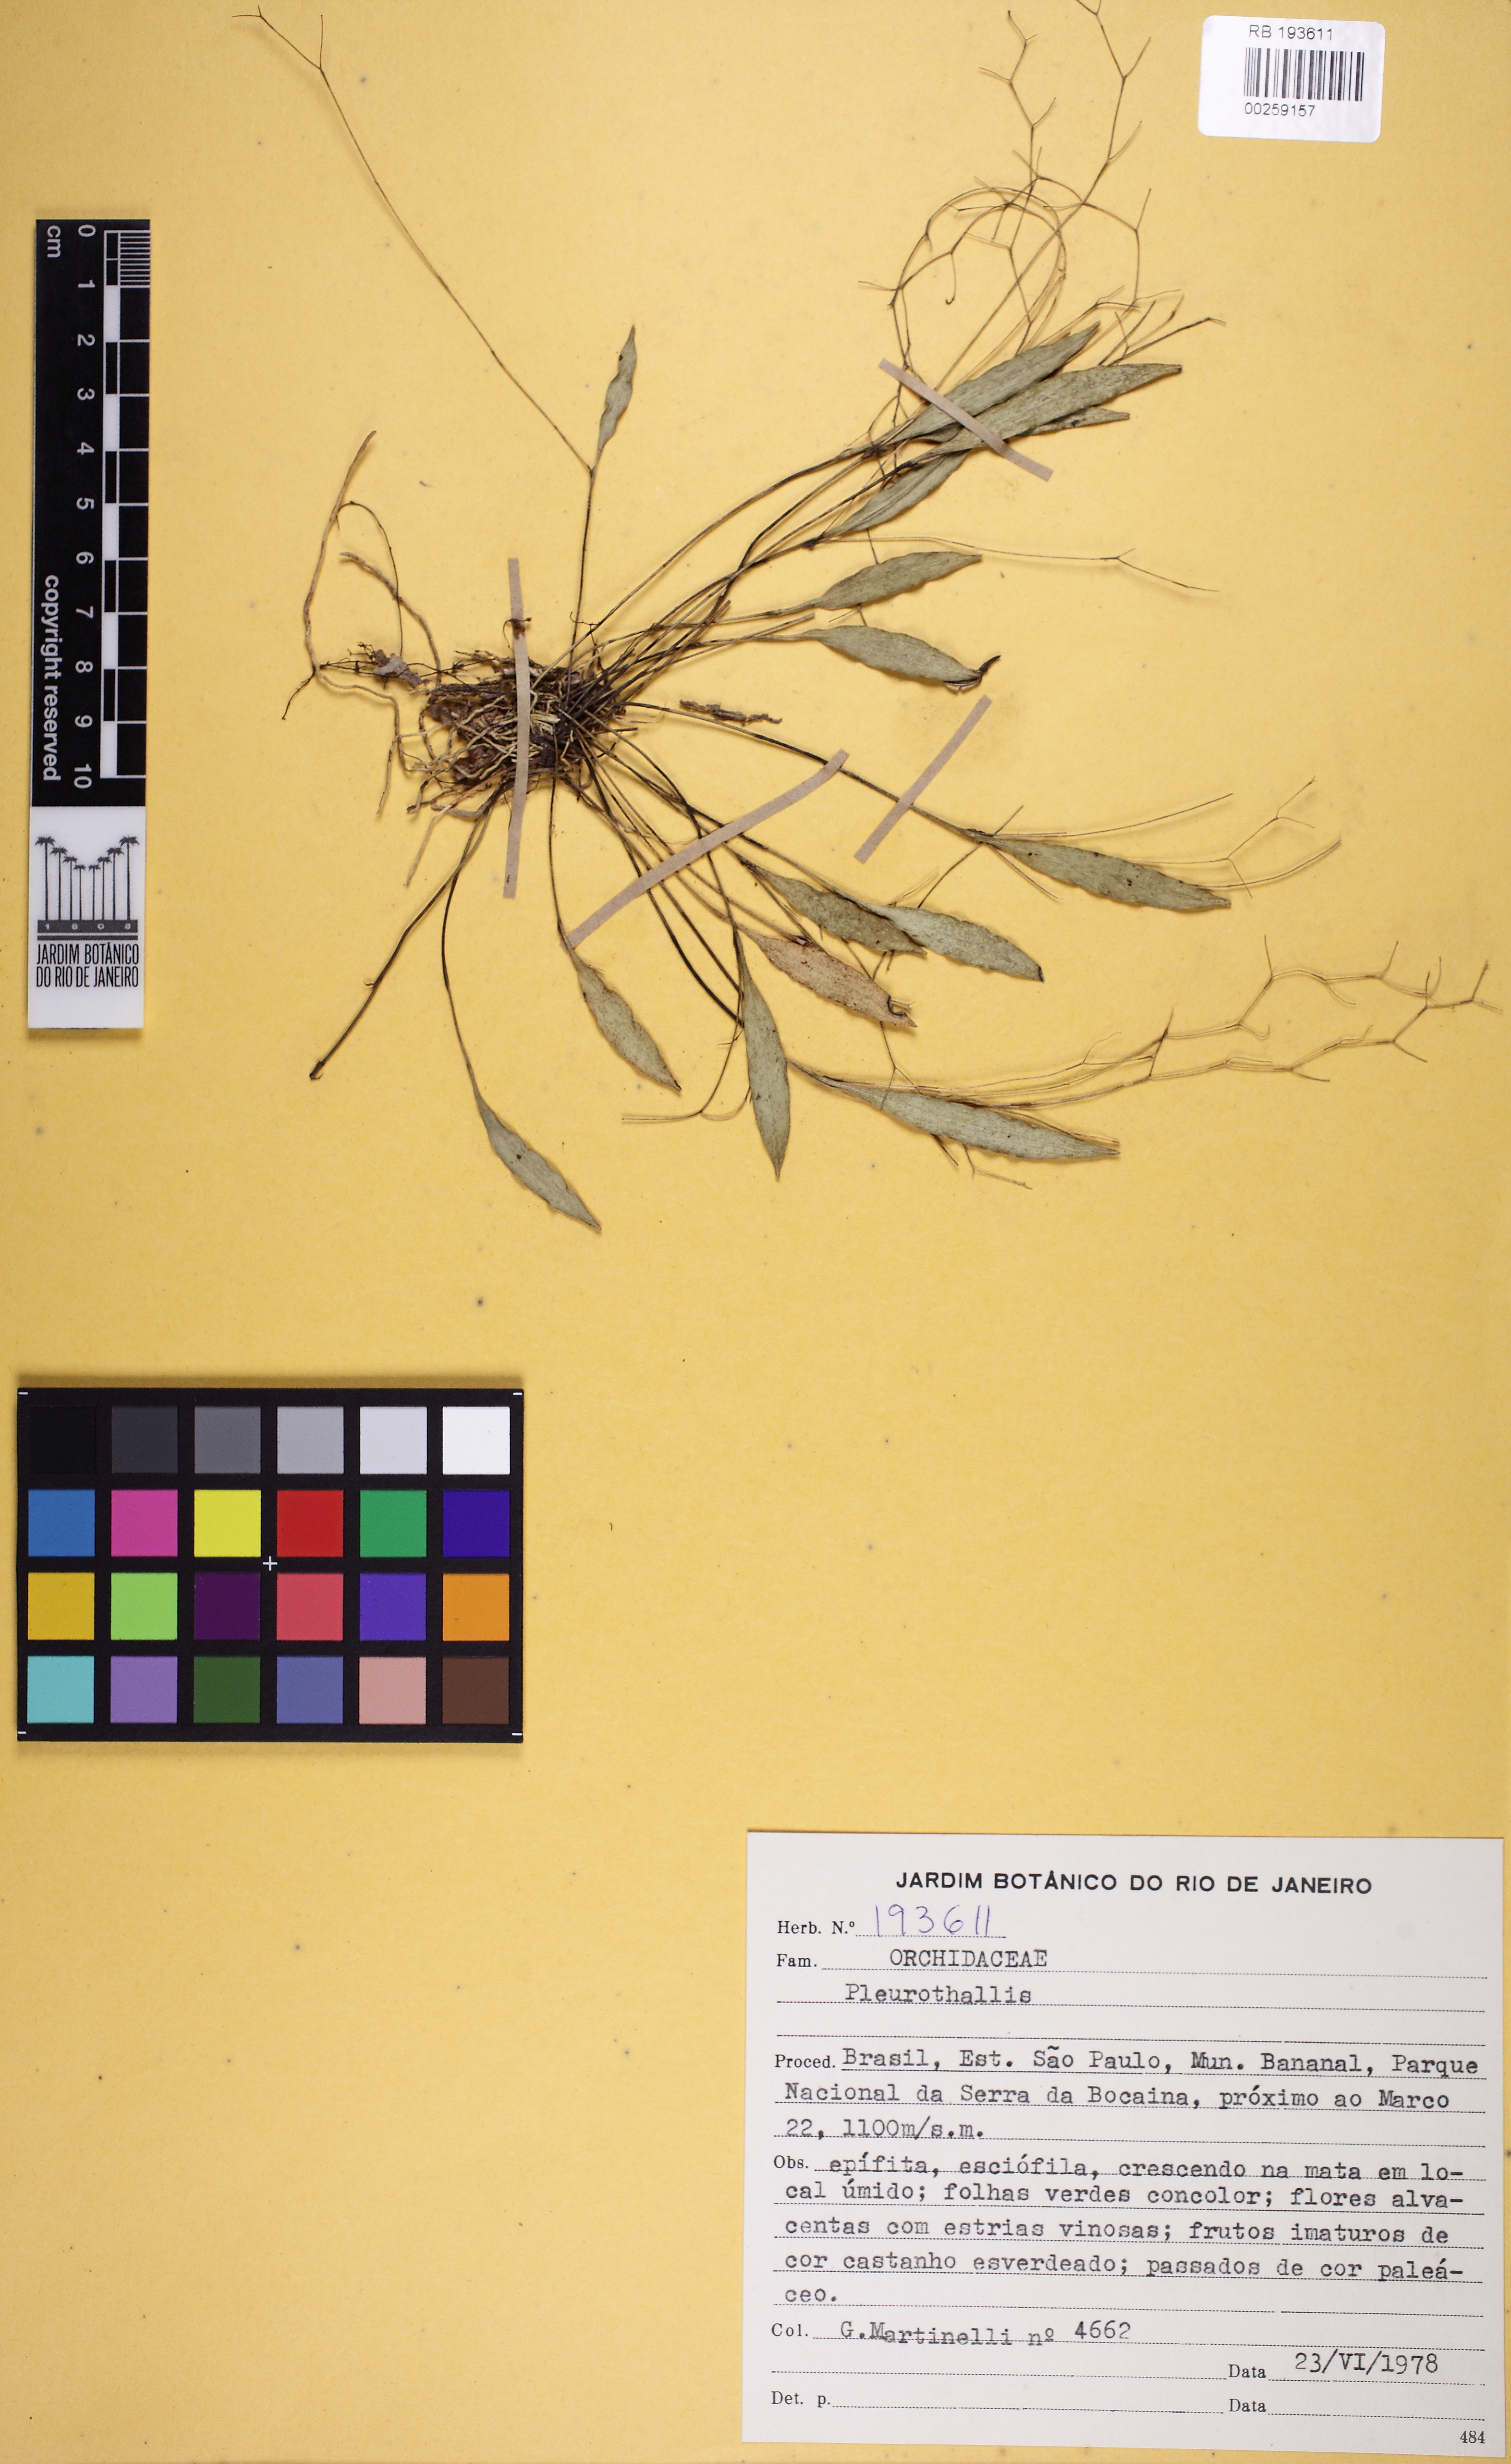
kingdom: Plantae
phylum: Tracheophyta
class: Liliopsida
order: Asparagales
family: Orchidaceae
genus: Pabstiella
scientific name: Pabstiella pleurothalloides
